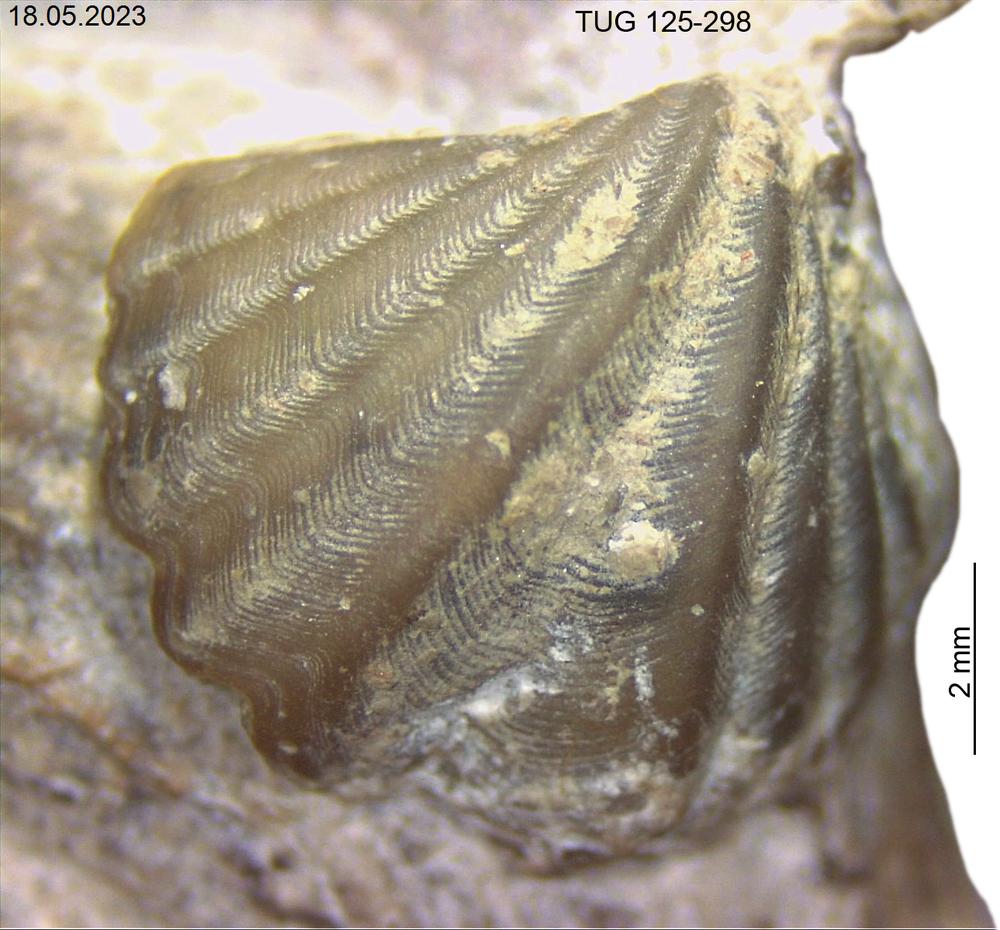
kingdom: Animalia
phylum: Brachiopoda
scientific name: Brachiopoda
